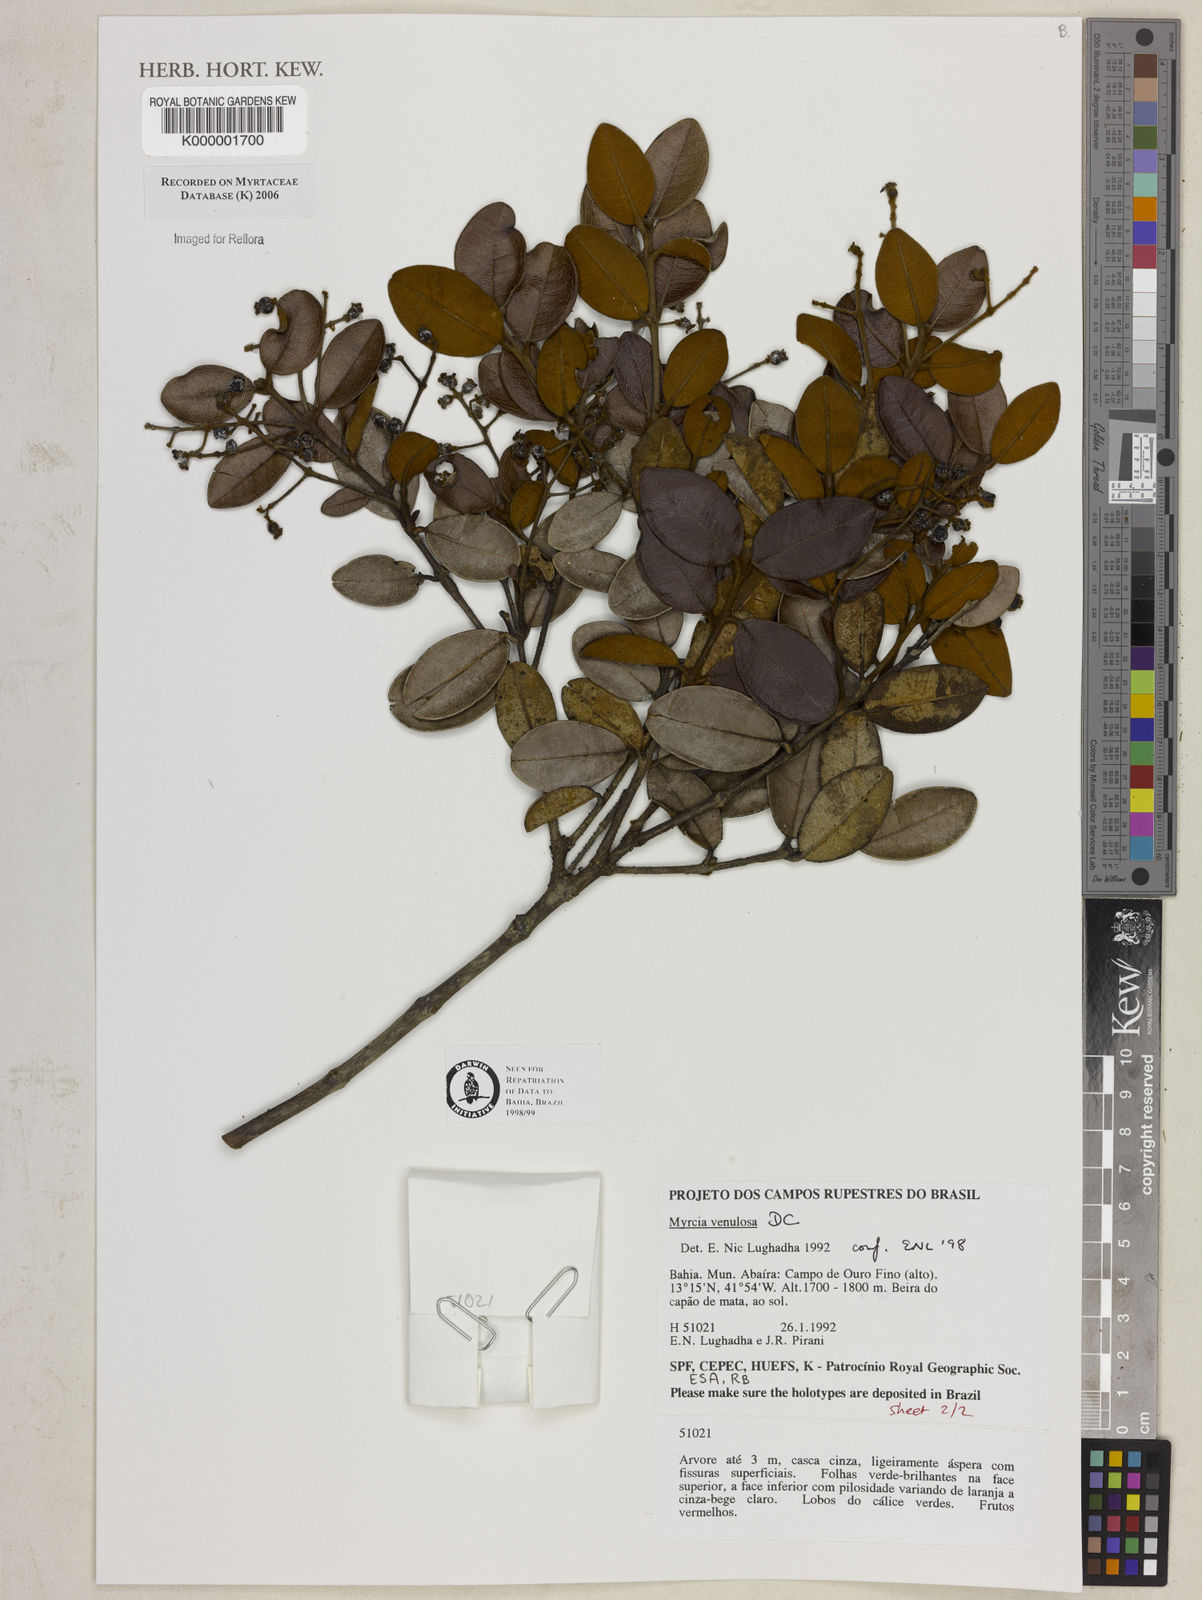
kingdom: Plantae
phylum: Tracheophyta
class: Magnoliopsida
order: Myrtales
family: Myrtaceae
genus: Myrcia
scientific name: Myrcia venulosa
